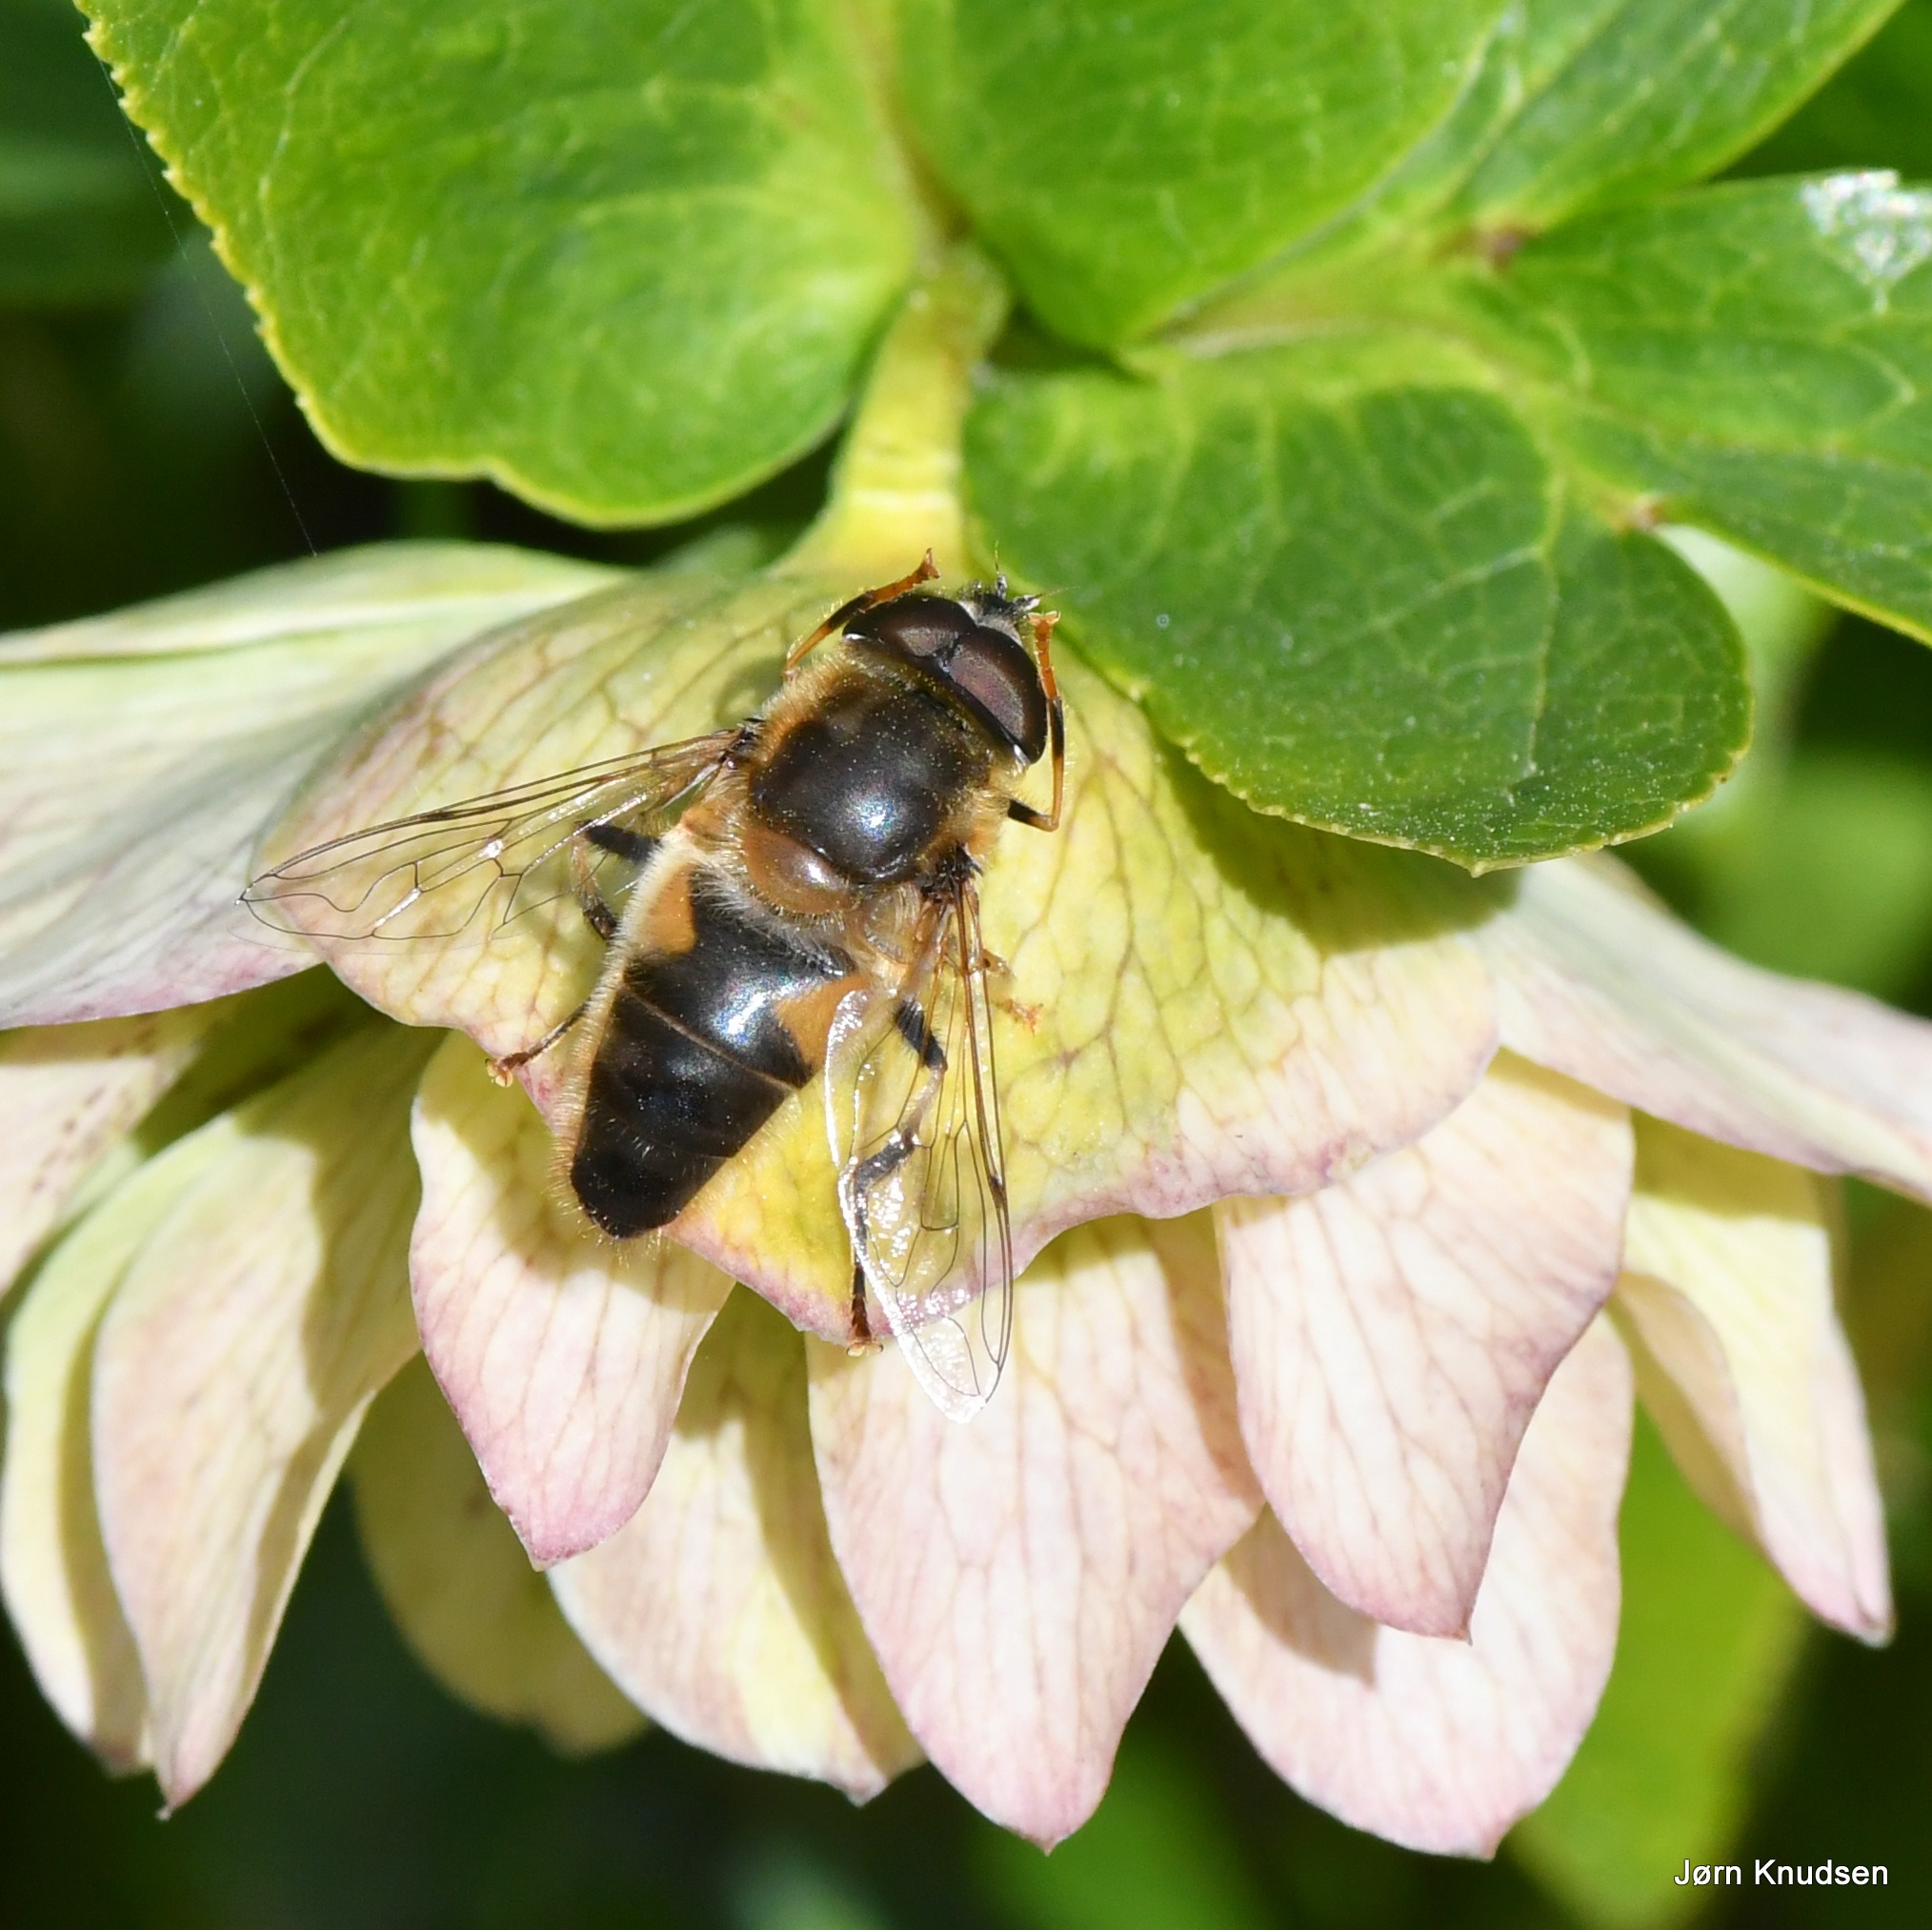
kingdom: Animalia
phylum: Arthropoda
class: Insecta
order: Diptera
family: Syrphidae
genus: Eristalis
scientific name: Eristalis pertinax
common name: Gulfodet dyndflue
